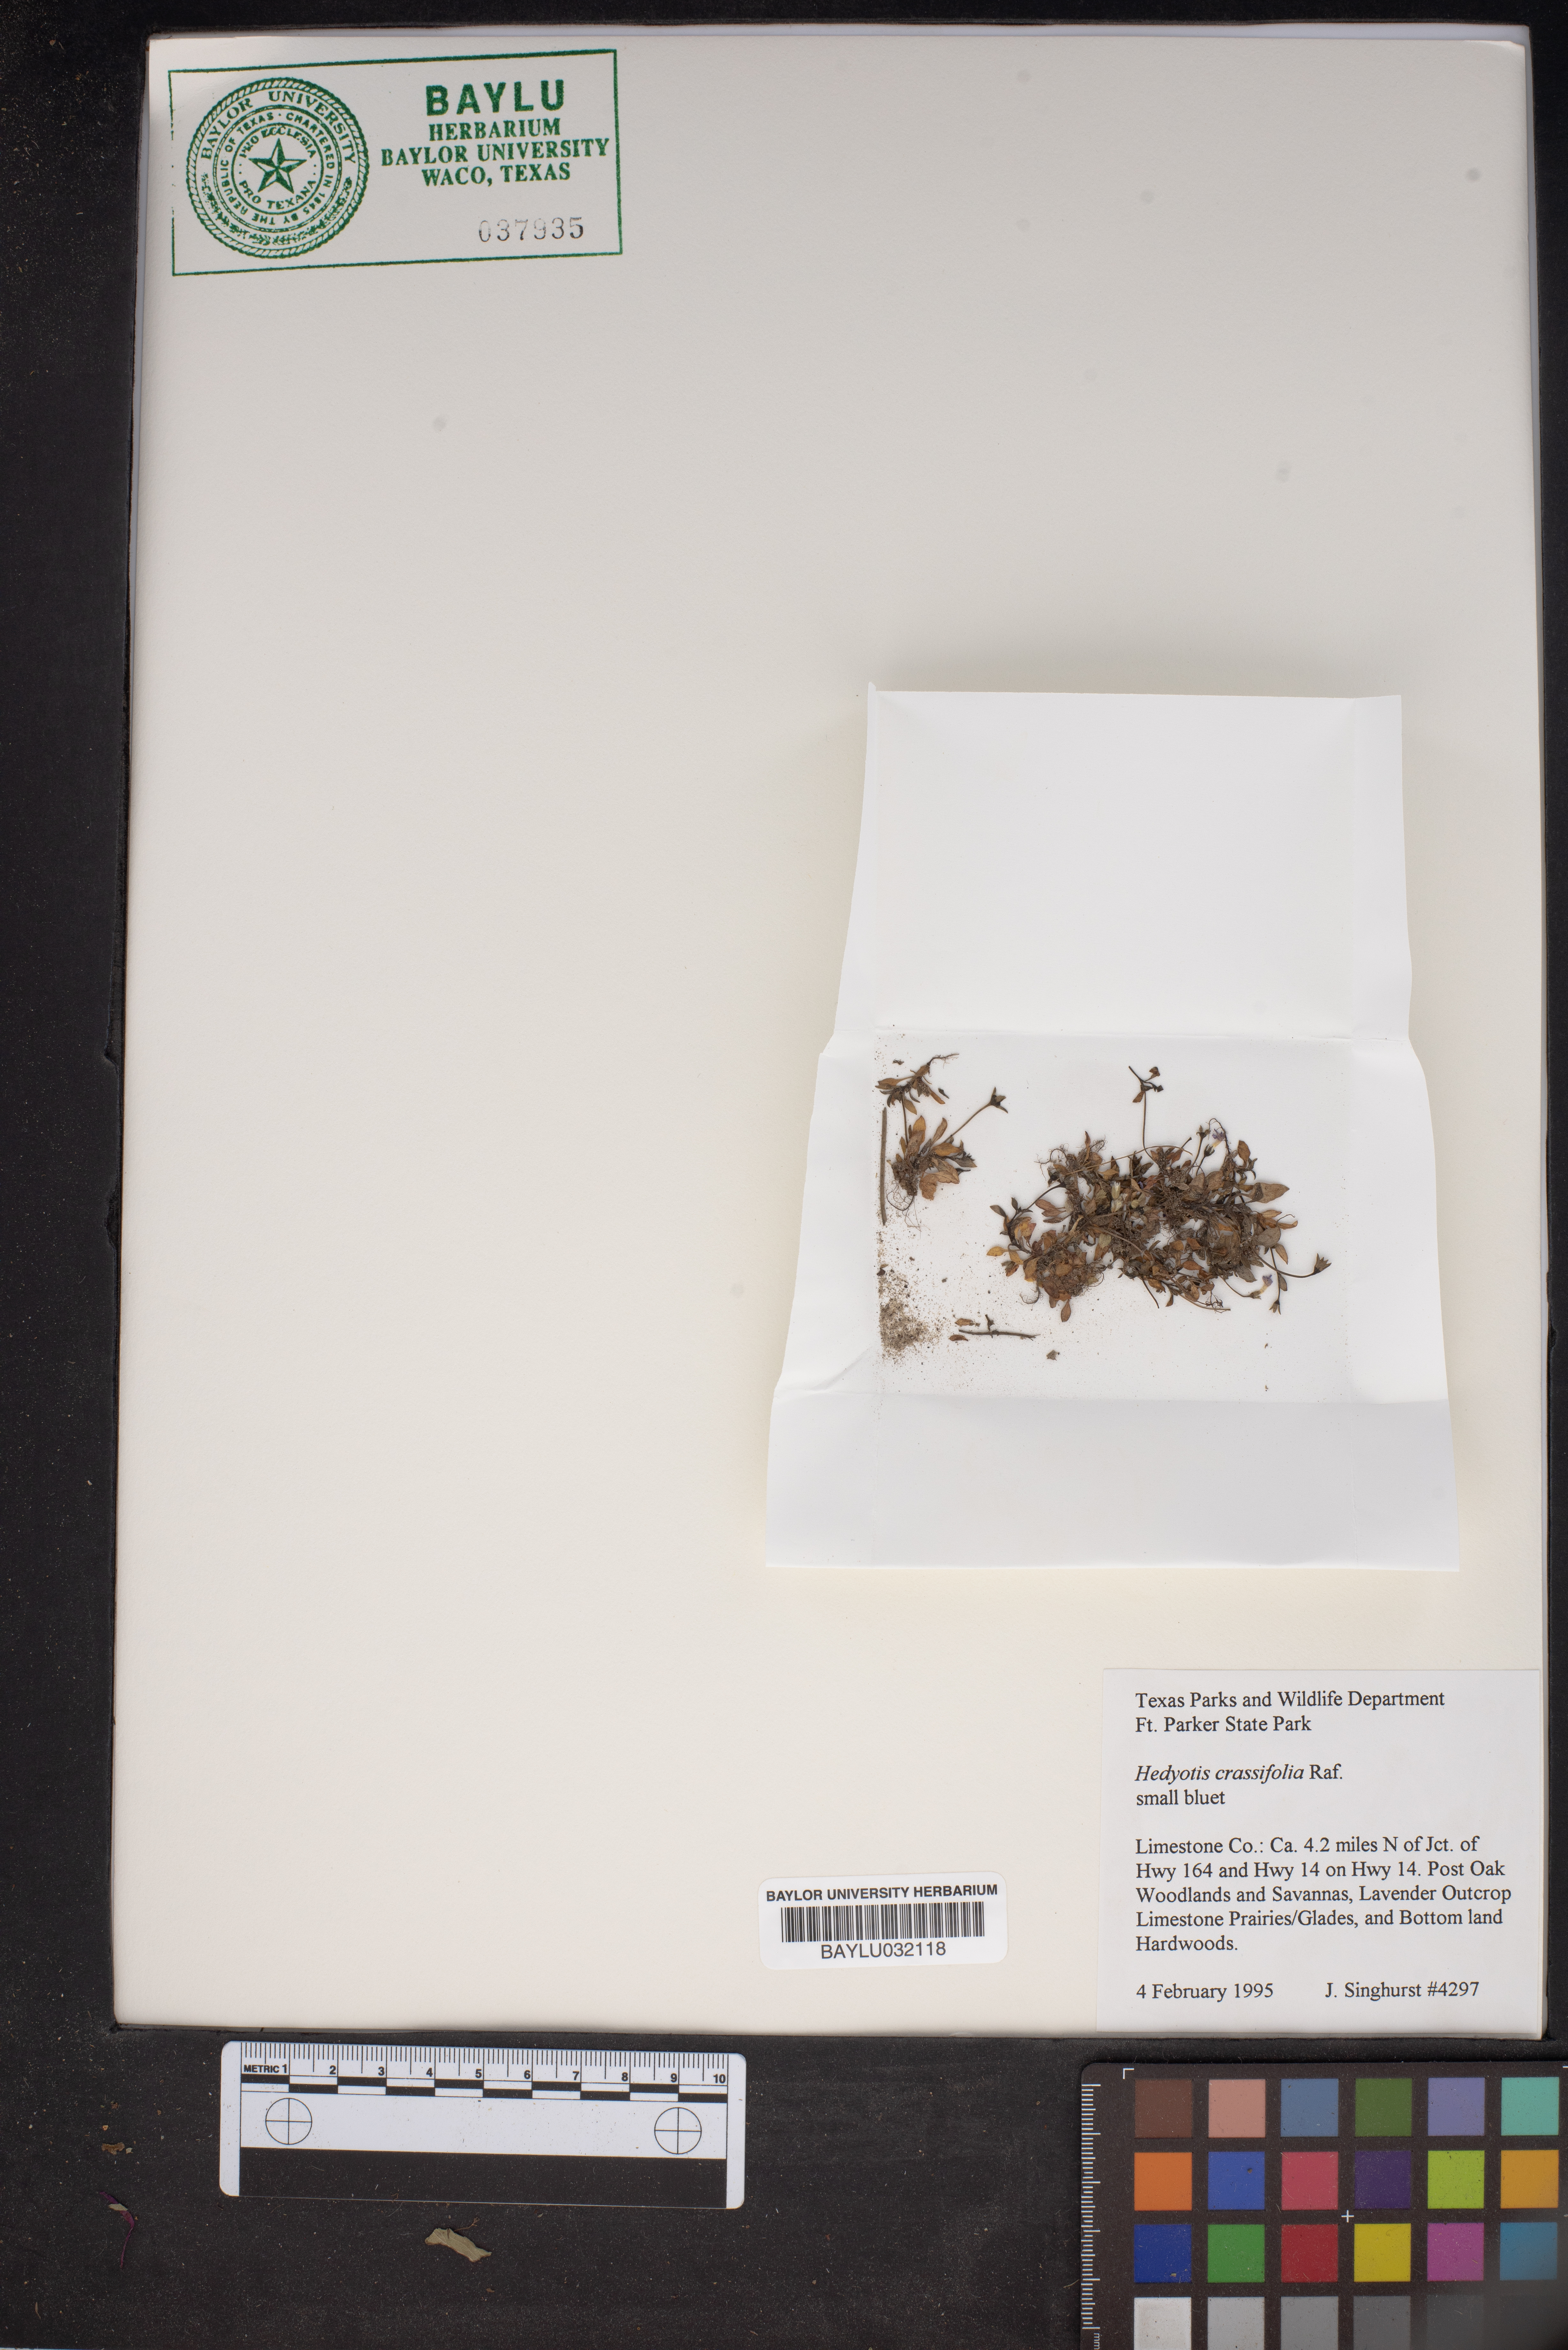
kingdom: Plantae
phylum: Tracheophyta
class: Magnoliopsida
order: Gentianales
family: Rubiaceae
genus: Houstonia
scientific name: Houstonia pusilla
